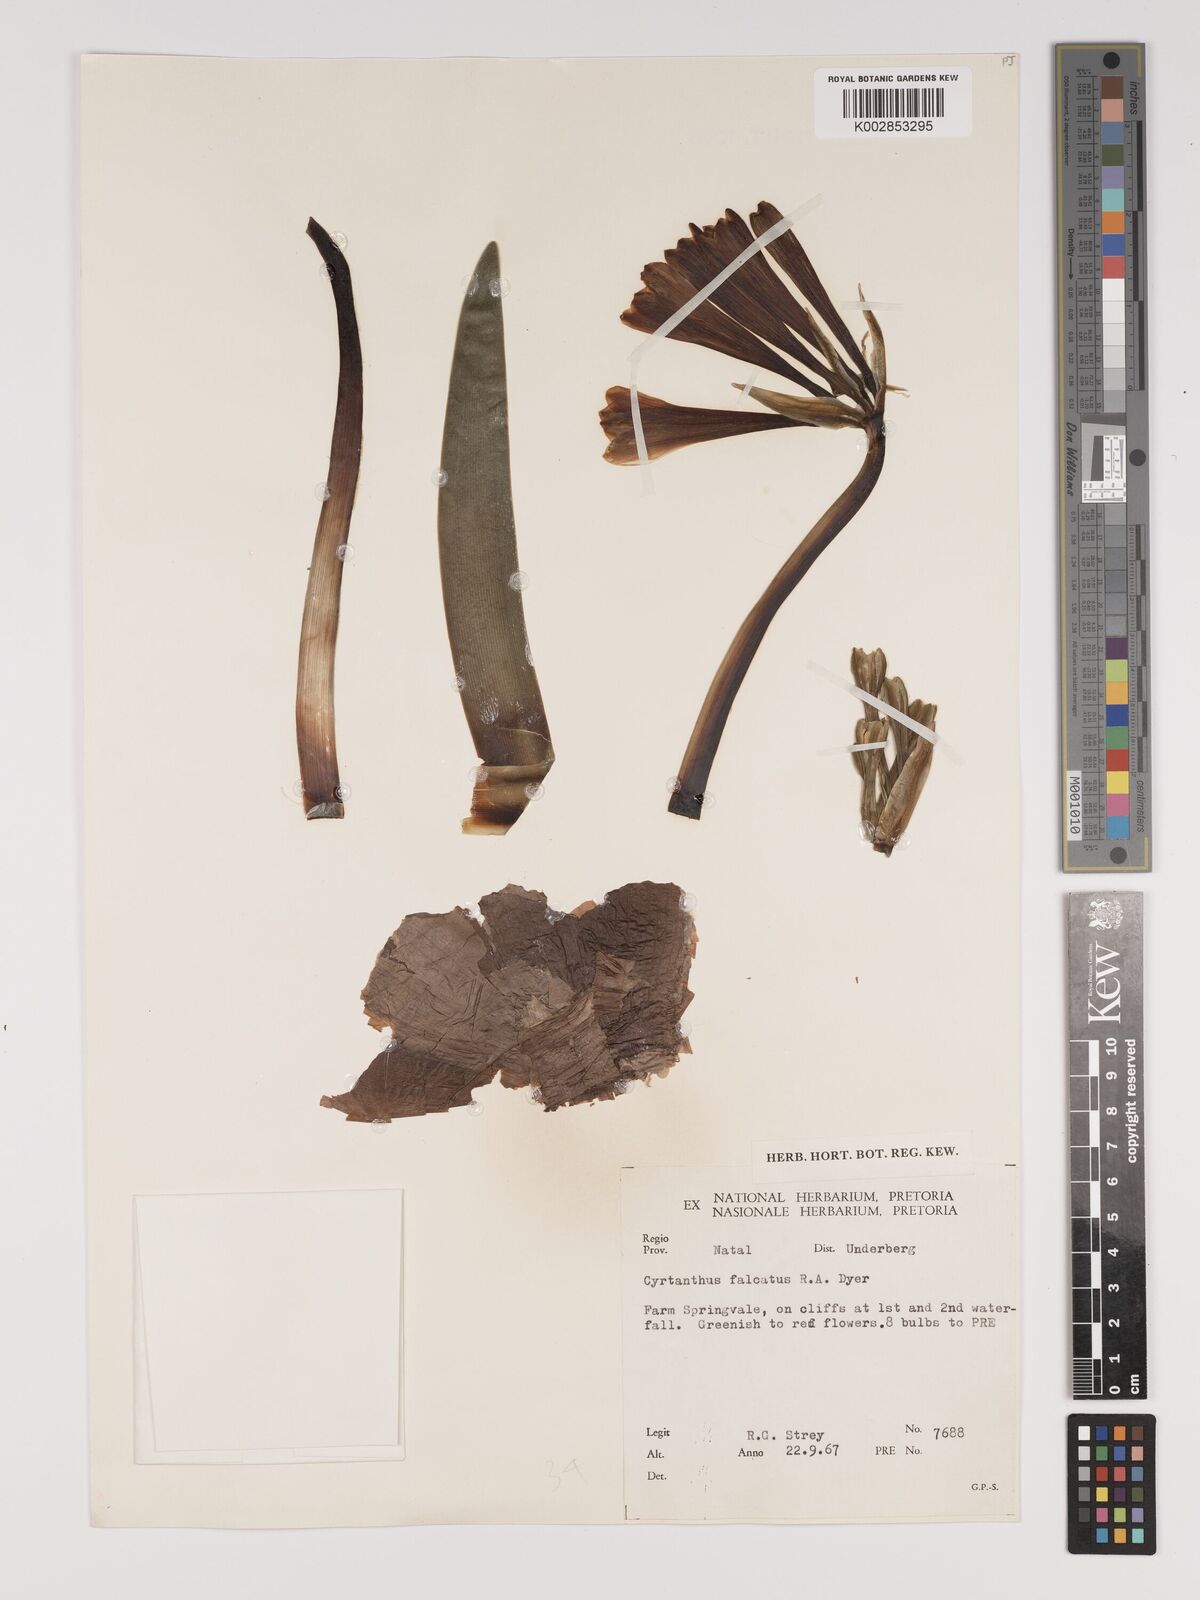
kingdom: Plantae
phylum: Tracheophyta
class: Liliopsida
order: Asparagales
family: Amaryllidaceae
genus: Cyrtanthus
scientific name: Cyrtanthus falcatus
